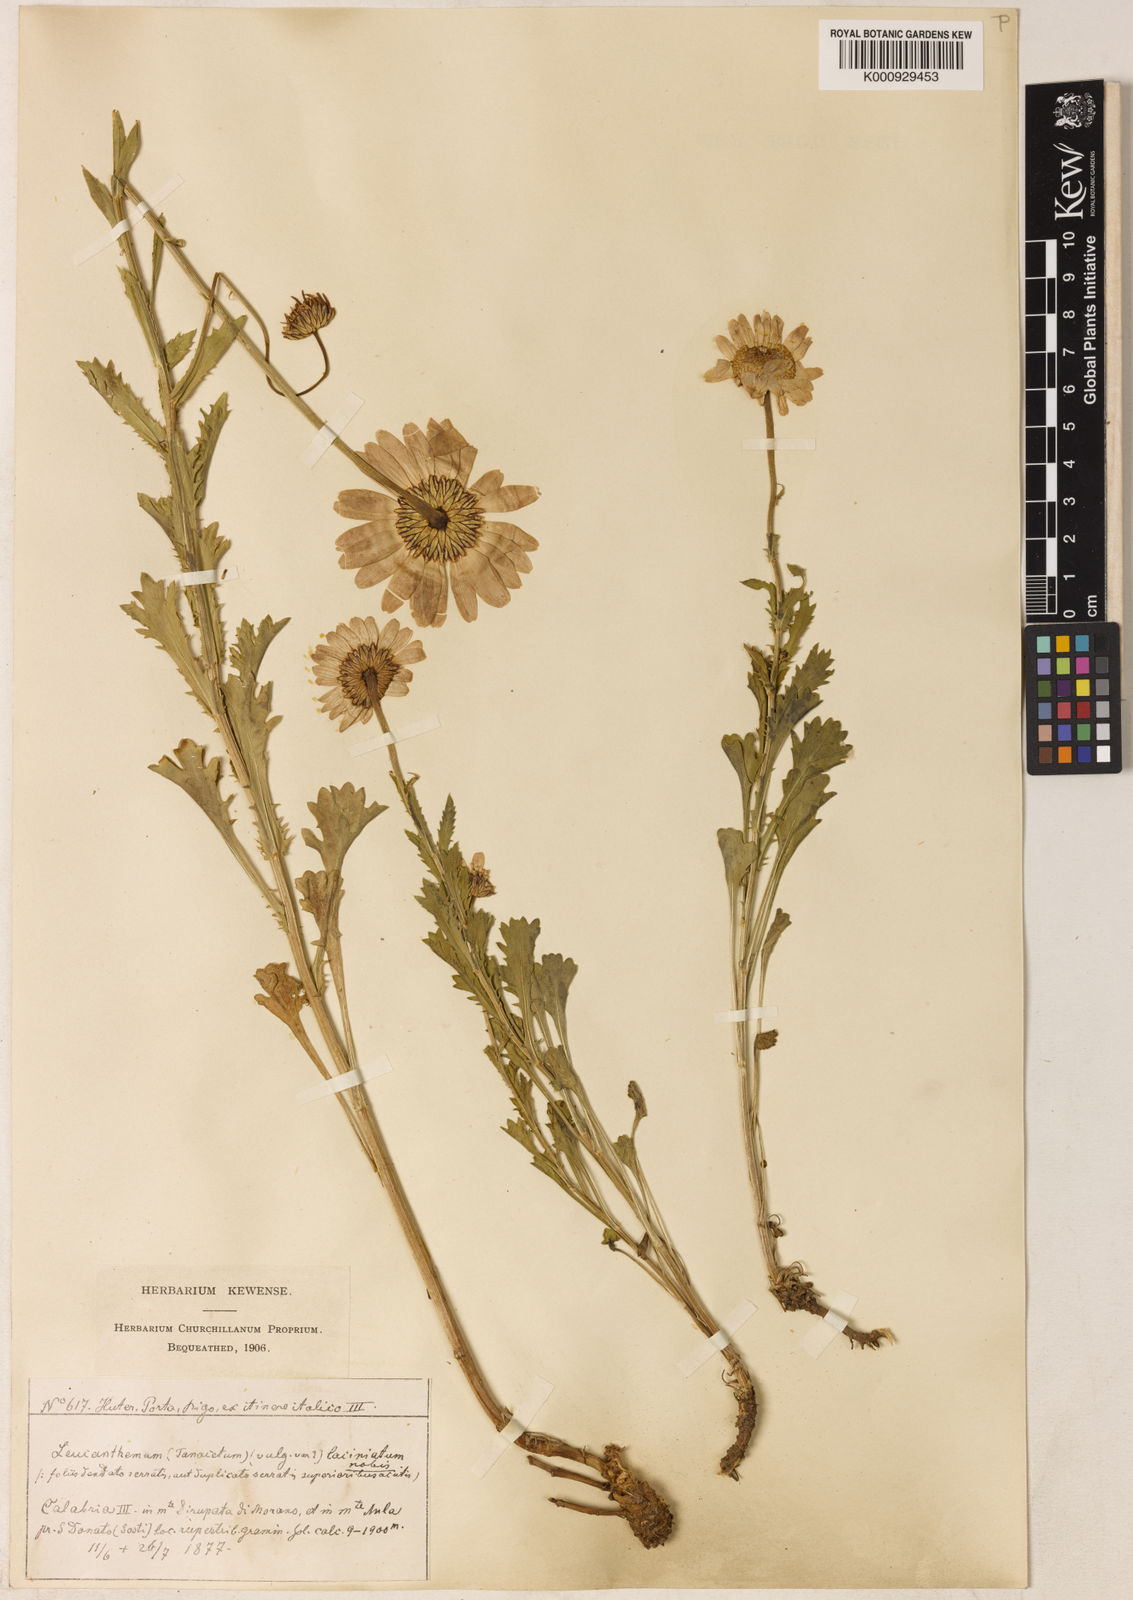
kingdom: Plantae
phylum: Tracheophyta
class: Magnoliopsida
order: Asterales
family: Asteraceae
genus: Leucanthemum
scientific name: Leucanthemum laciniatum
